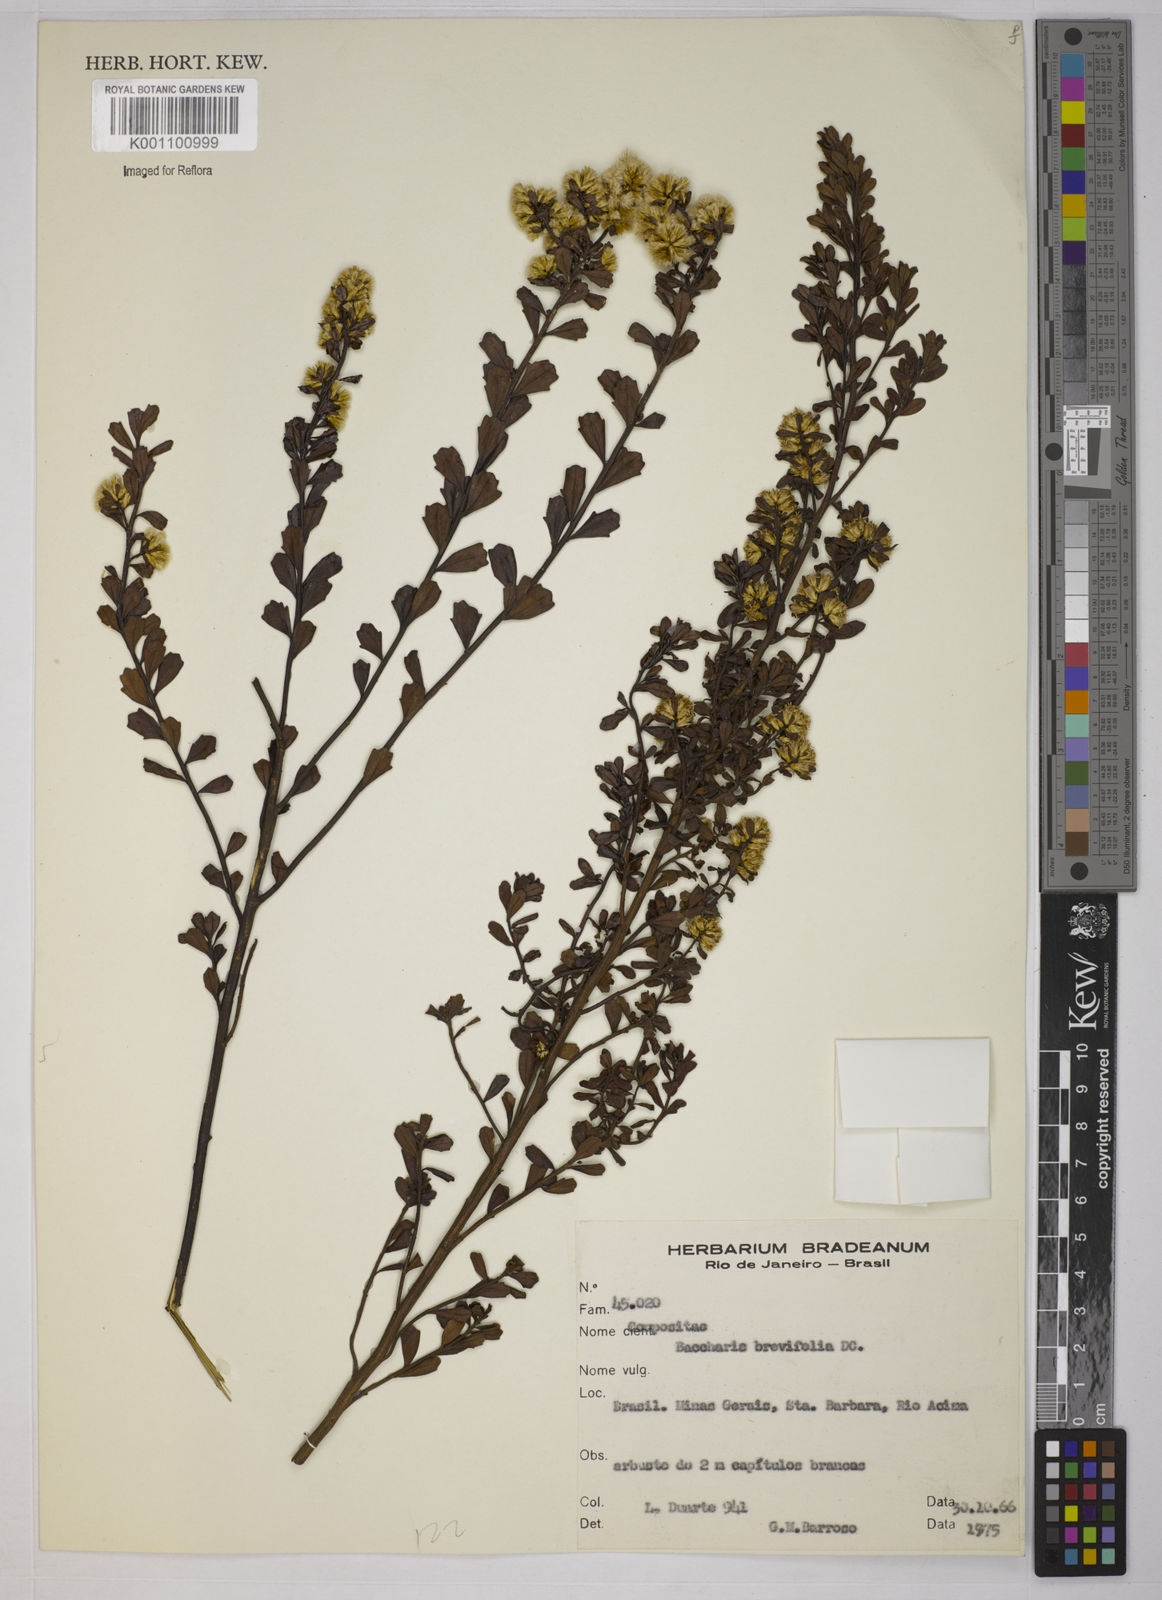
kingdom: Plantae
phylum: Tracheophyta
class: Magnoliopsida
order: Asterales
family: Asteraceae
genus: Baccharis
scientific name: Baccharis brevifolia
